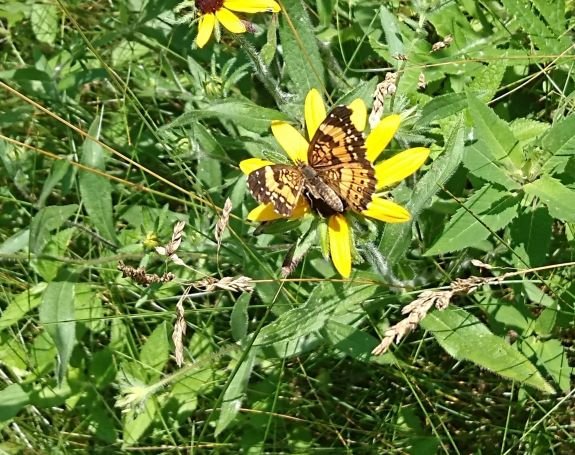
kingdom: Animalia
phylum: Arthropoda
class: Insecta
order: Lepidoptera
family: Nymphalidae
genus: Chlosyne
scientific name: Chlosyne nycteis
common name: Silvery Checkerspot
